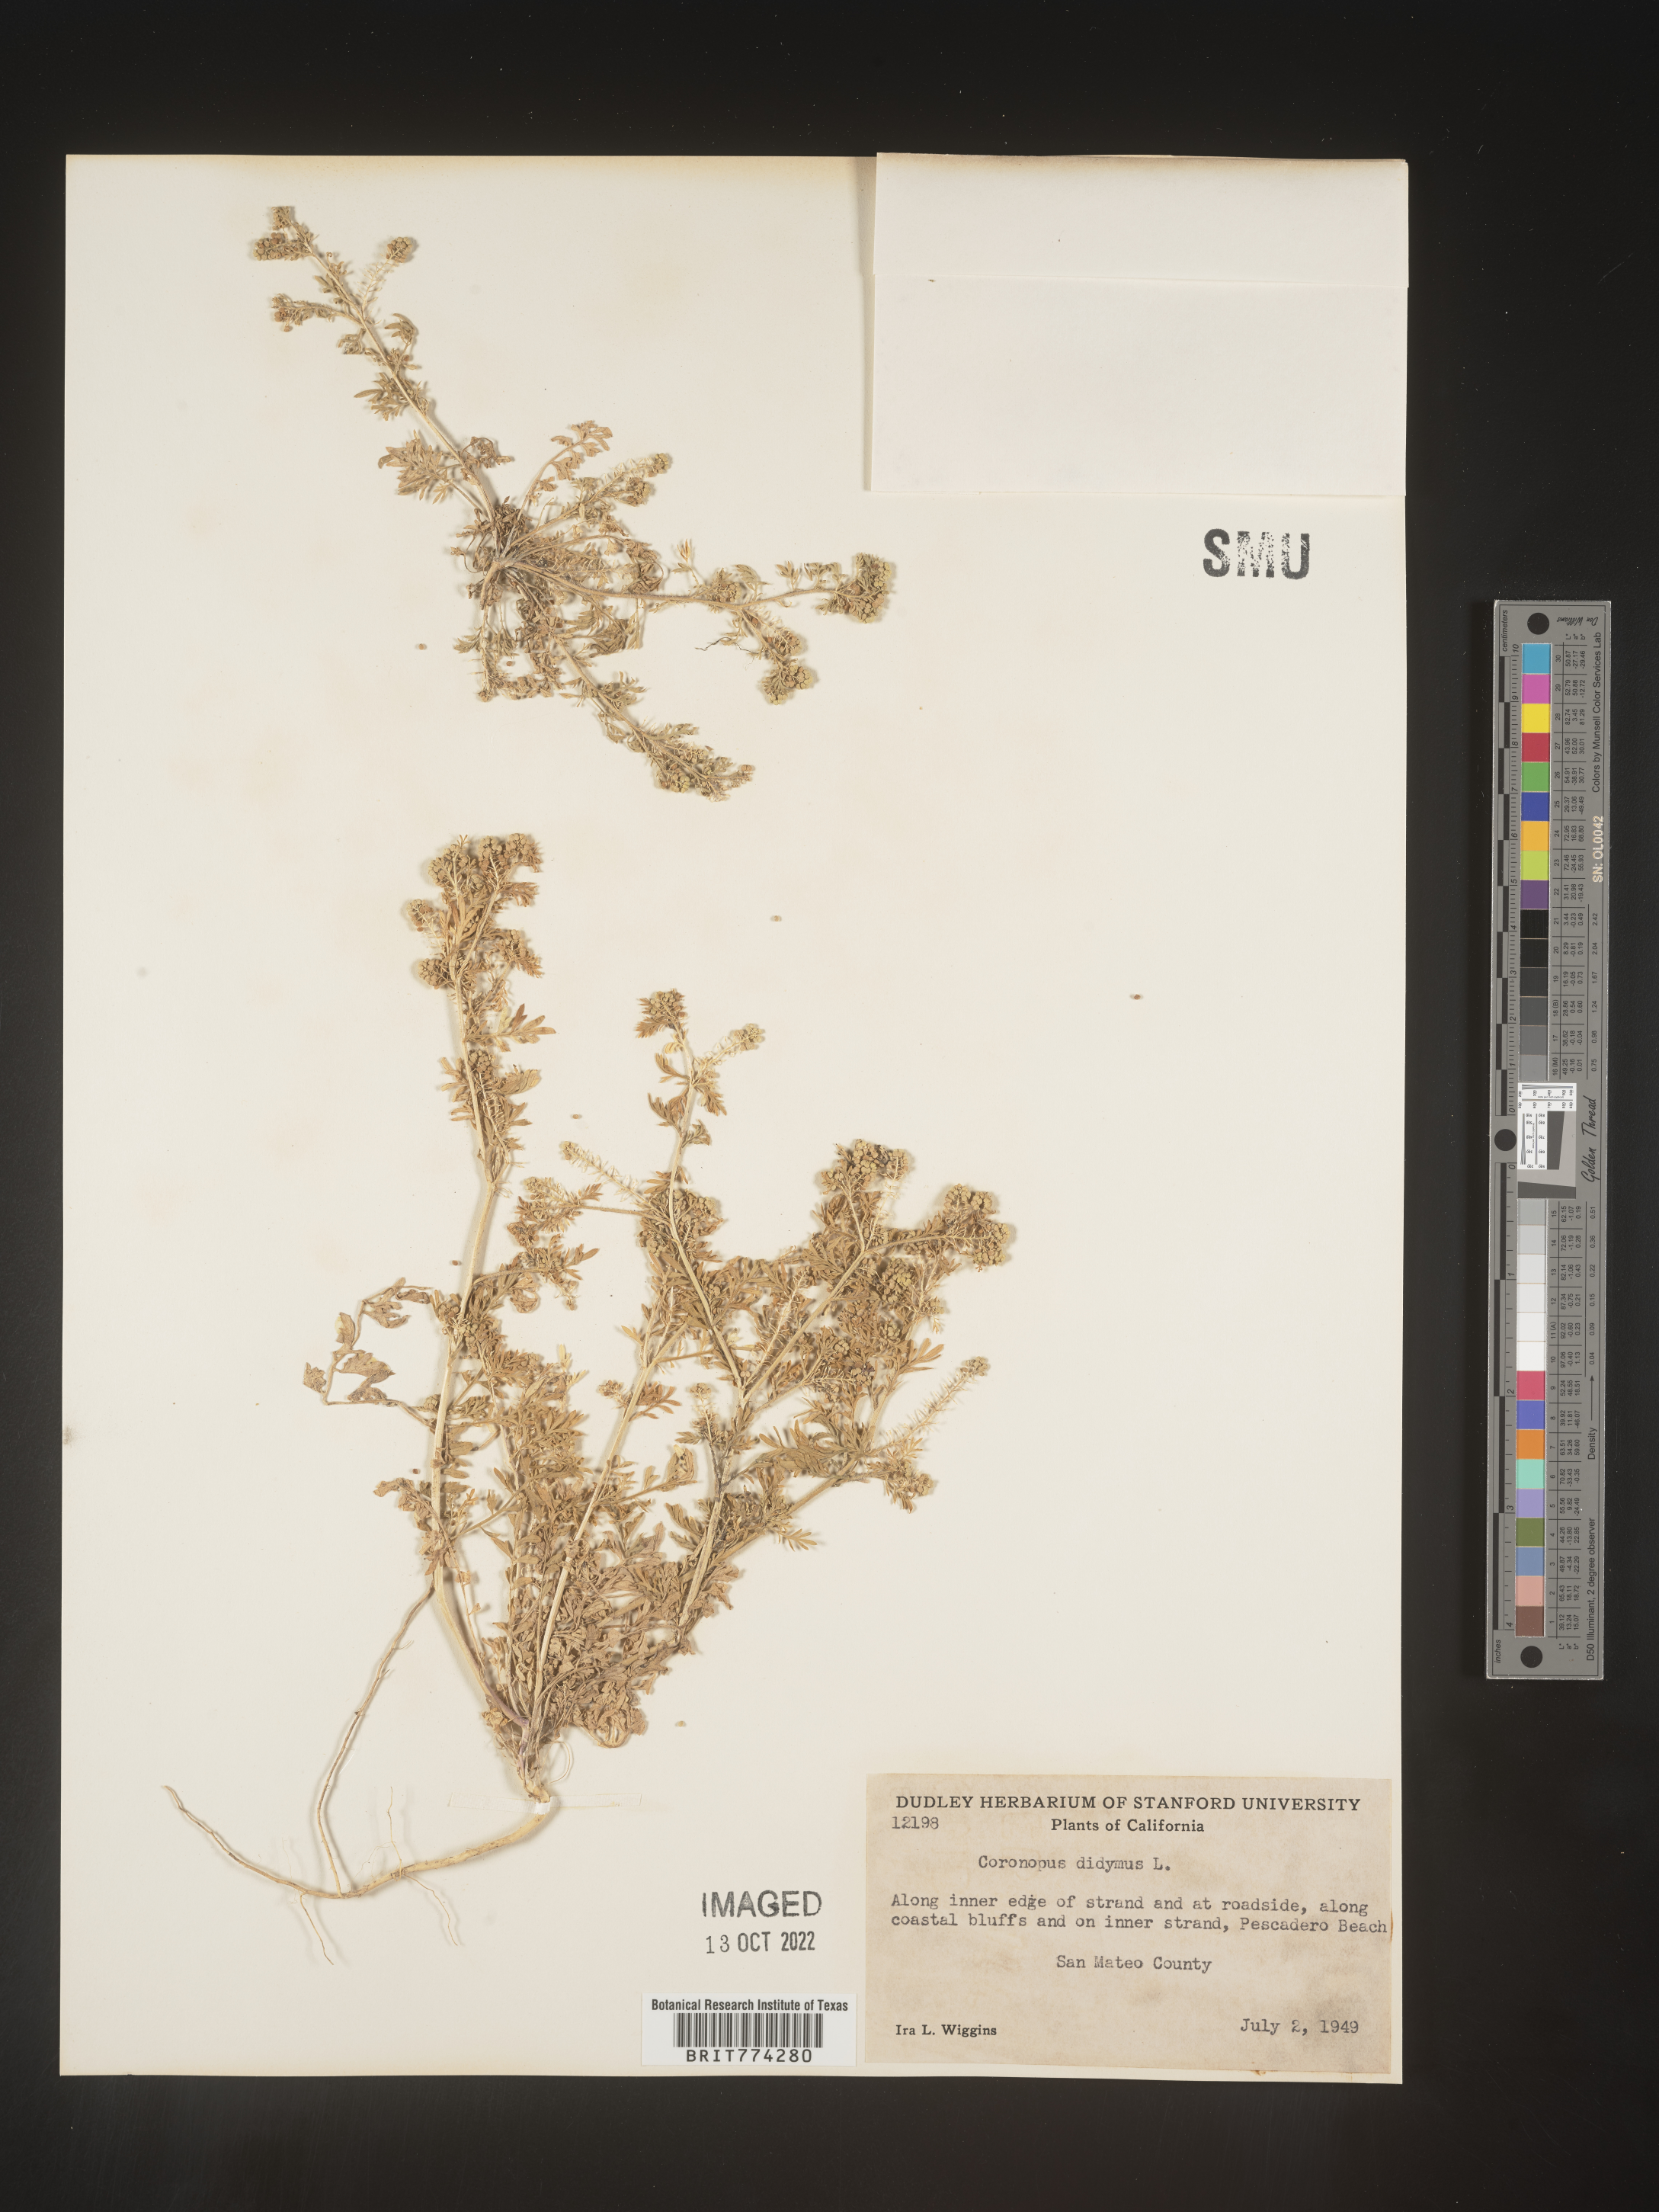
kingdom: Plantae
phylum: Tracheophyta
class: Magnoliopsida
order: Brassicales
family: Brassicaceae
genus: Coronopus
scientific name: Coronopus
